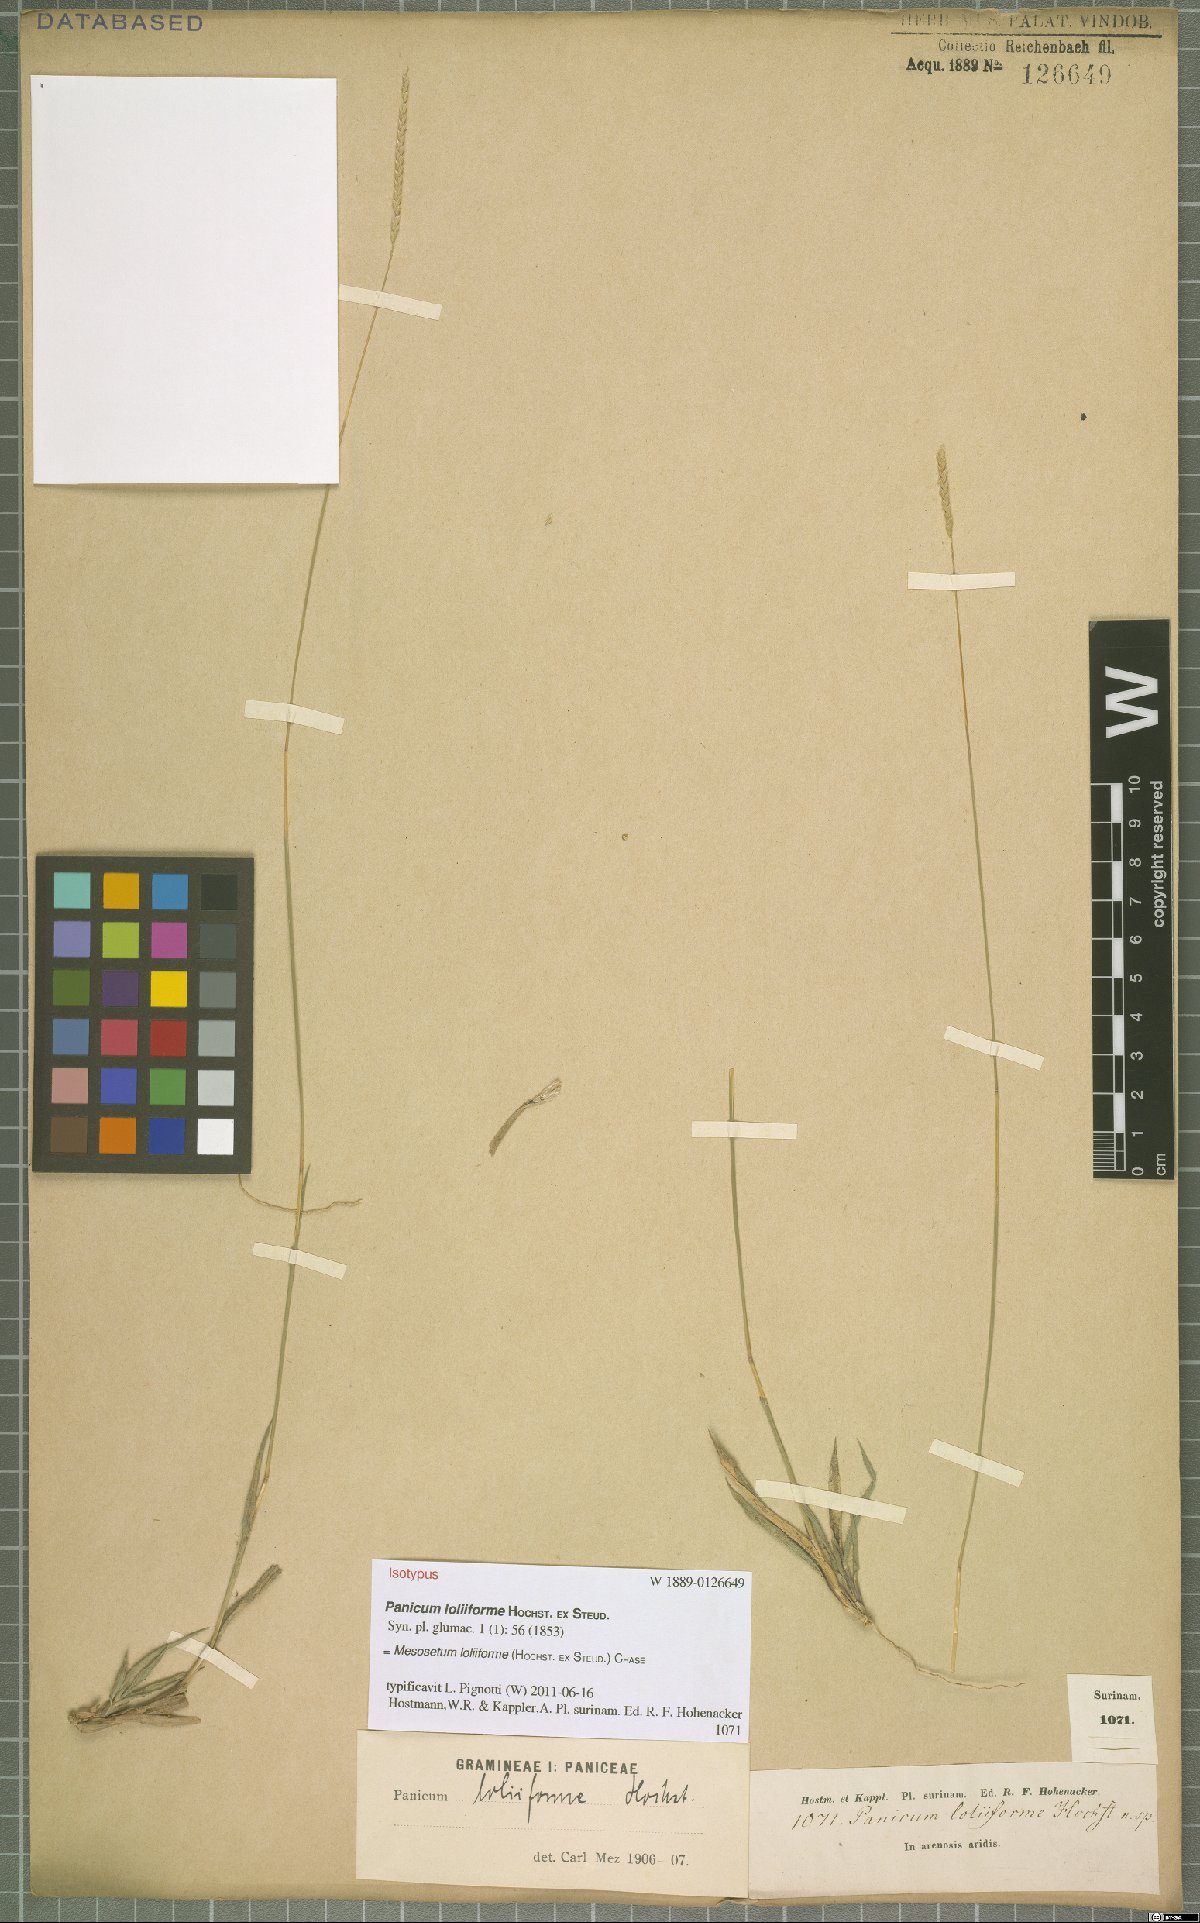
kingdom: Plantae
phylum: Tracheophyta
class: Liliopsida
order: Poales
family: Poaceae
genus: Mesosetum
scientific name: Mesosetum loliiforme
